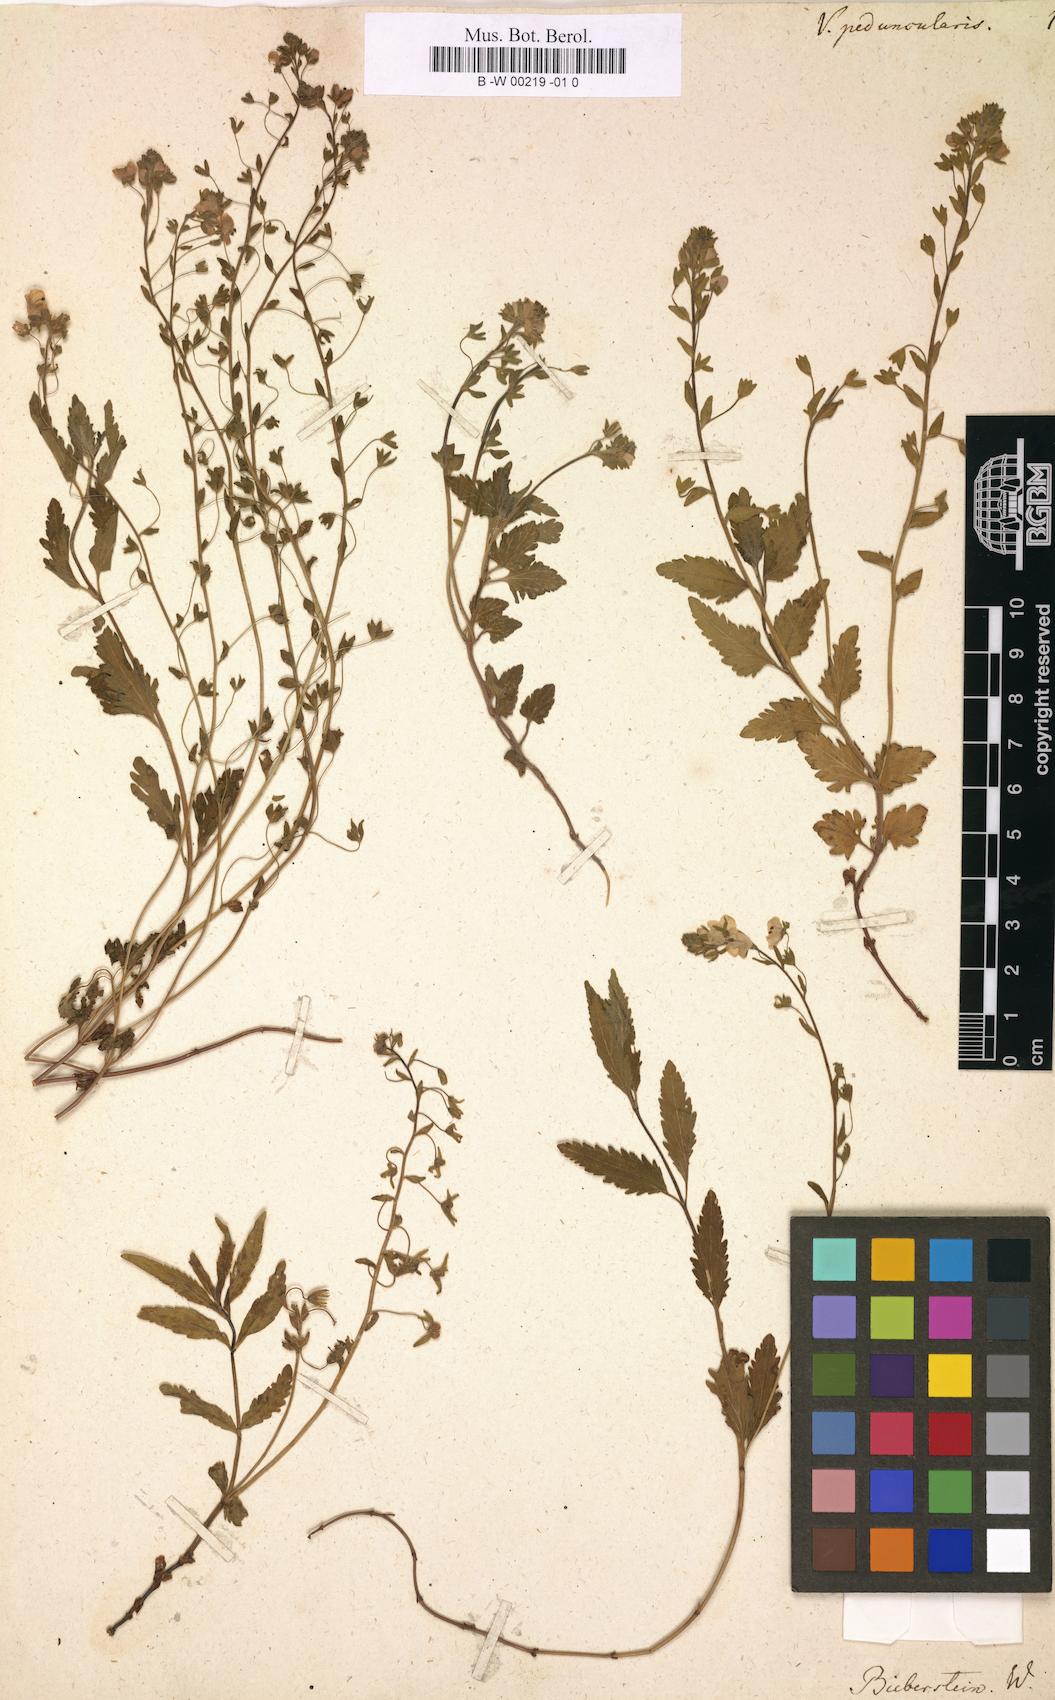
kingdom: Plantae
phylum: Tracheophyta
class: Magnoliopsida
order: Lamiales
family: Plantaginaceae
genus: Veronica
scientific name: Veronica peduncularis
